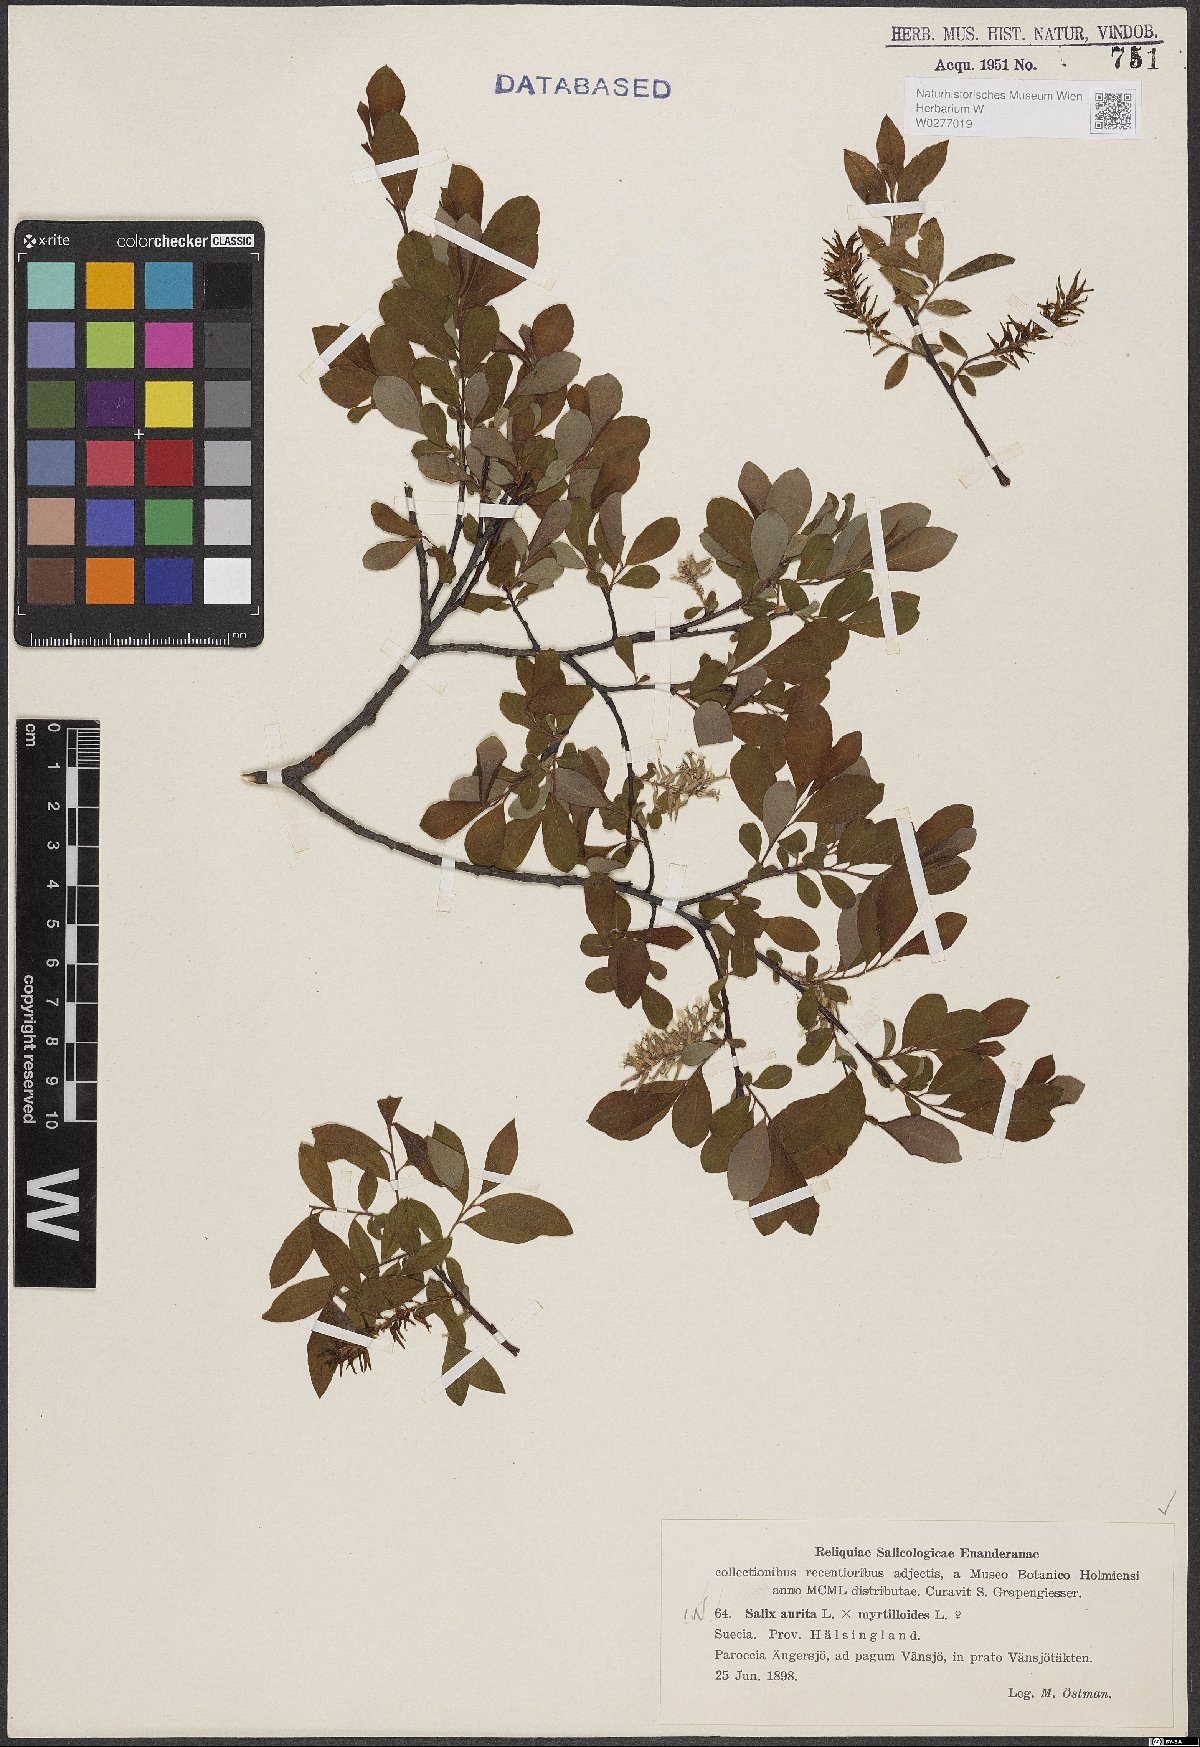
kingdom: Plantae
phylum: Tracheophyta
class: Magnoliopsida
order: Malpighiales
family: Salicaceae
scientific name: Salicaceae
